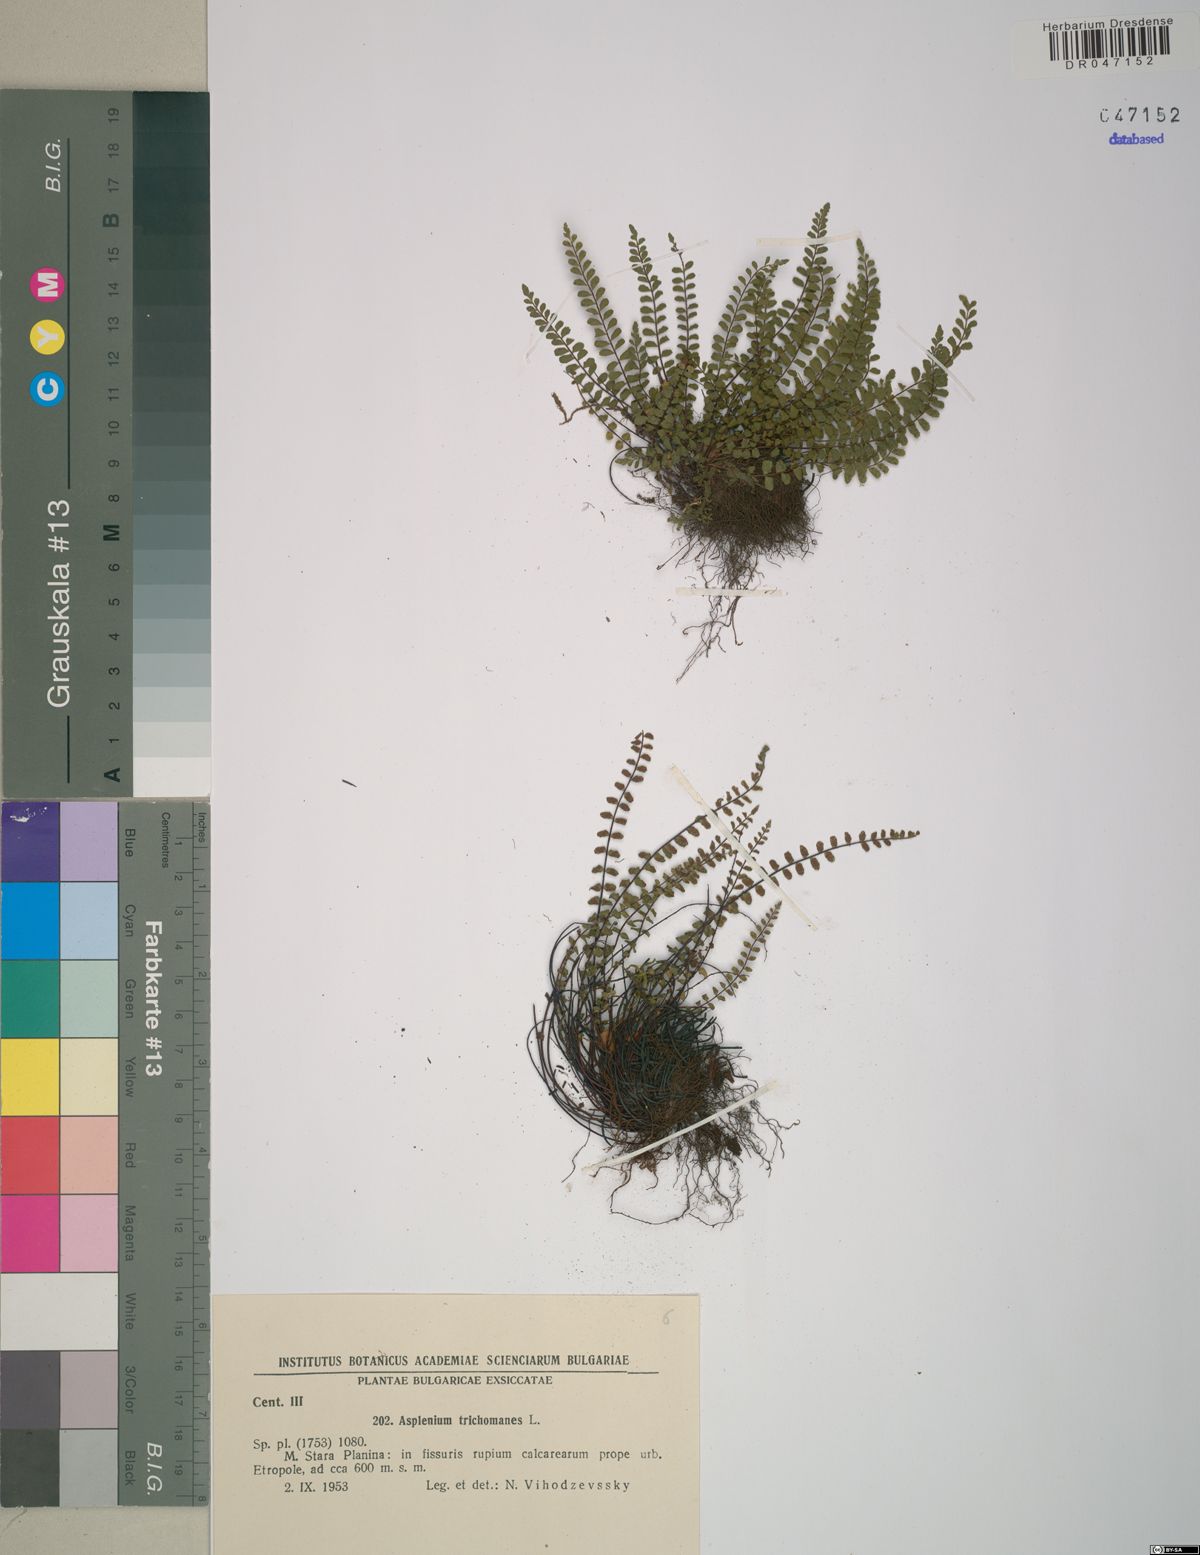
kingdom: Plantae
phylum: Tracheophyta
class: Polypodiopsida
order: Polypodiales
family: Aspleniaceae
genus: Asplenium
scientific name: Asplenium trichomanes
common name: Maidenhair spleenwort
